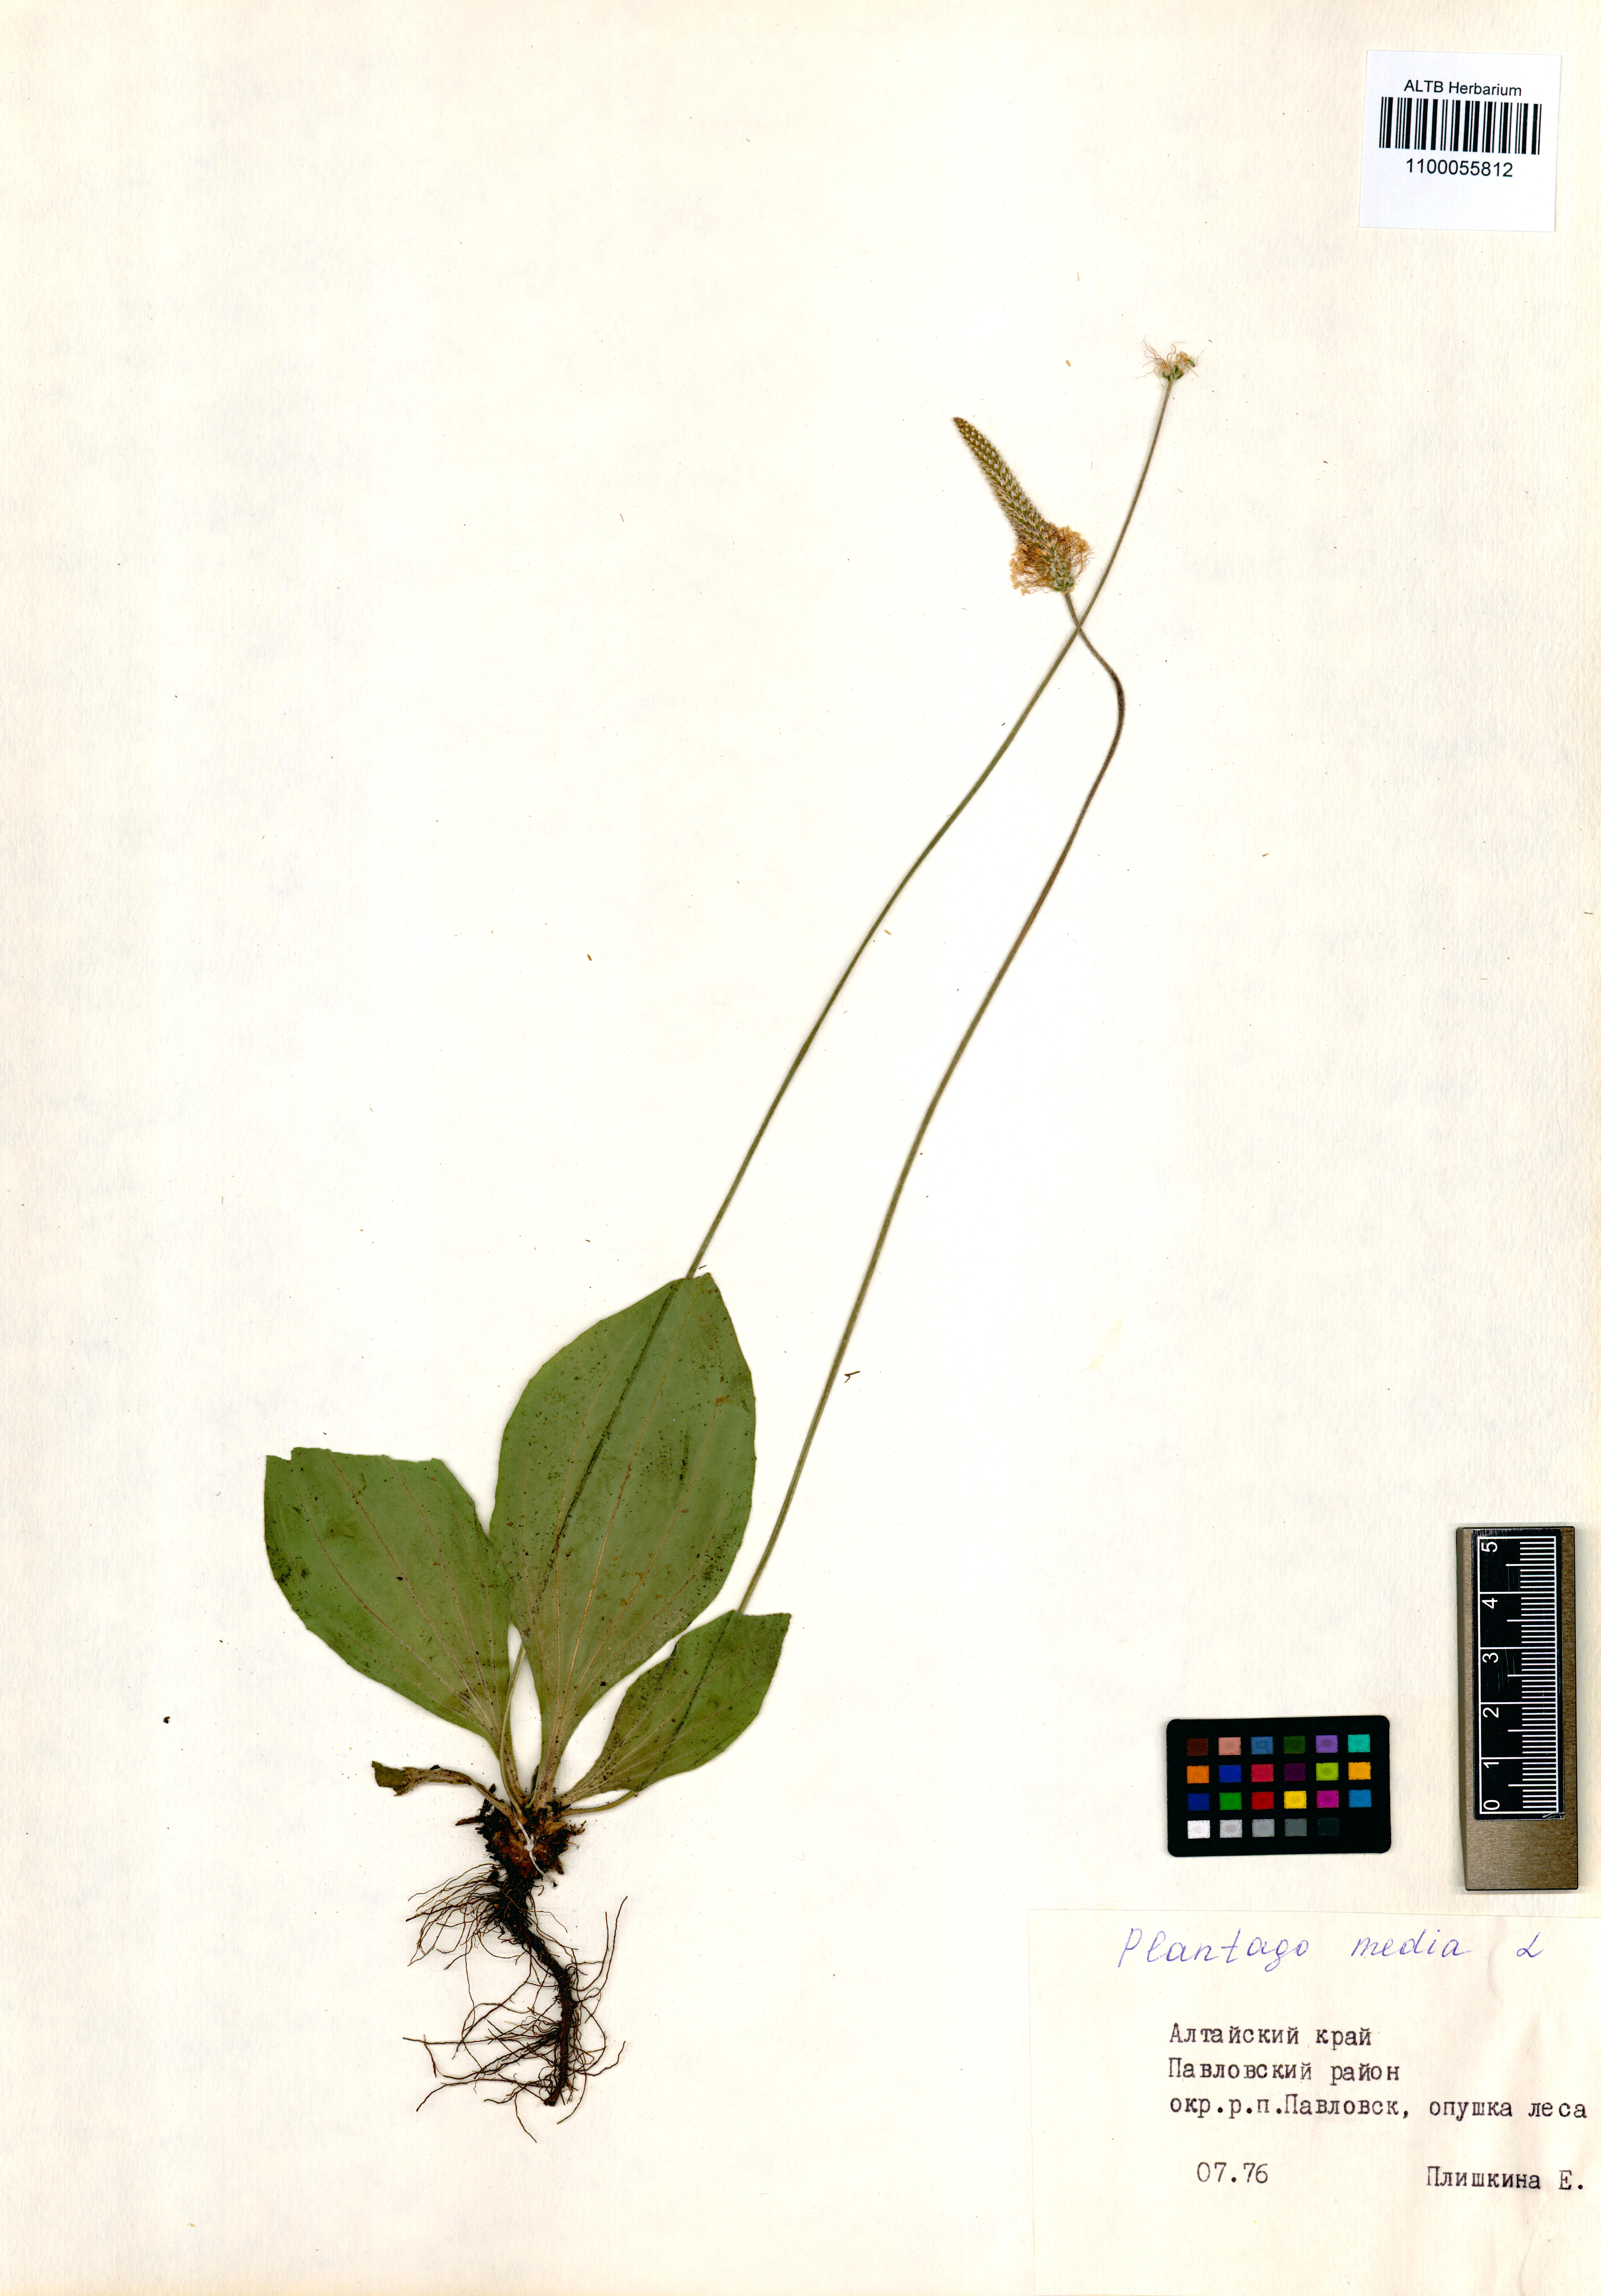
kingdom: Plantae
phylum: Tracheophyta
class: Magnoliopsida
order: Lamiales
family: Plantaginaceae
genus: Plantago
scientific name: Plantago media
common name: Hoary plantain
